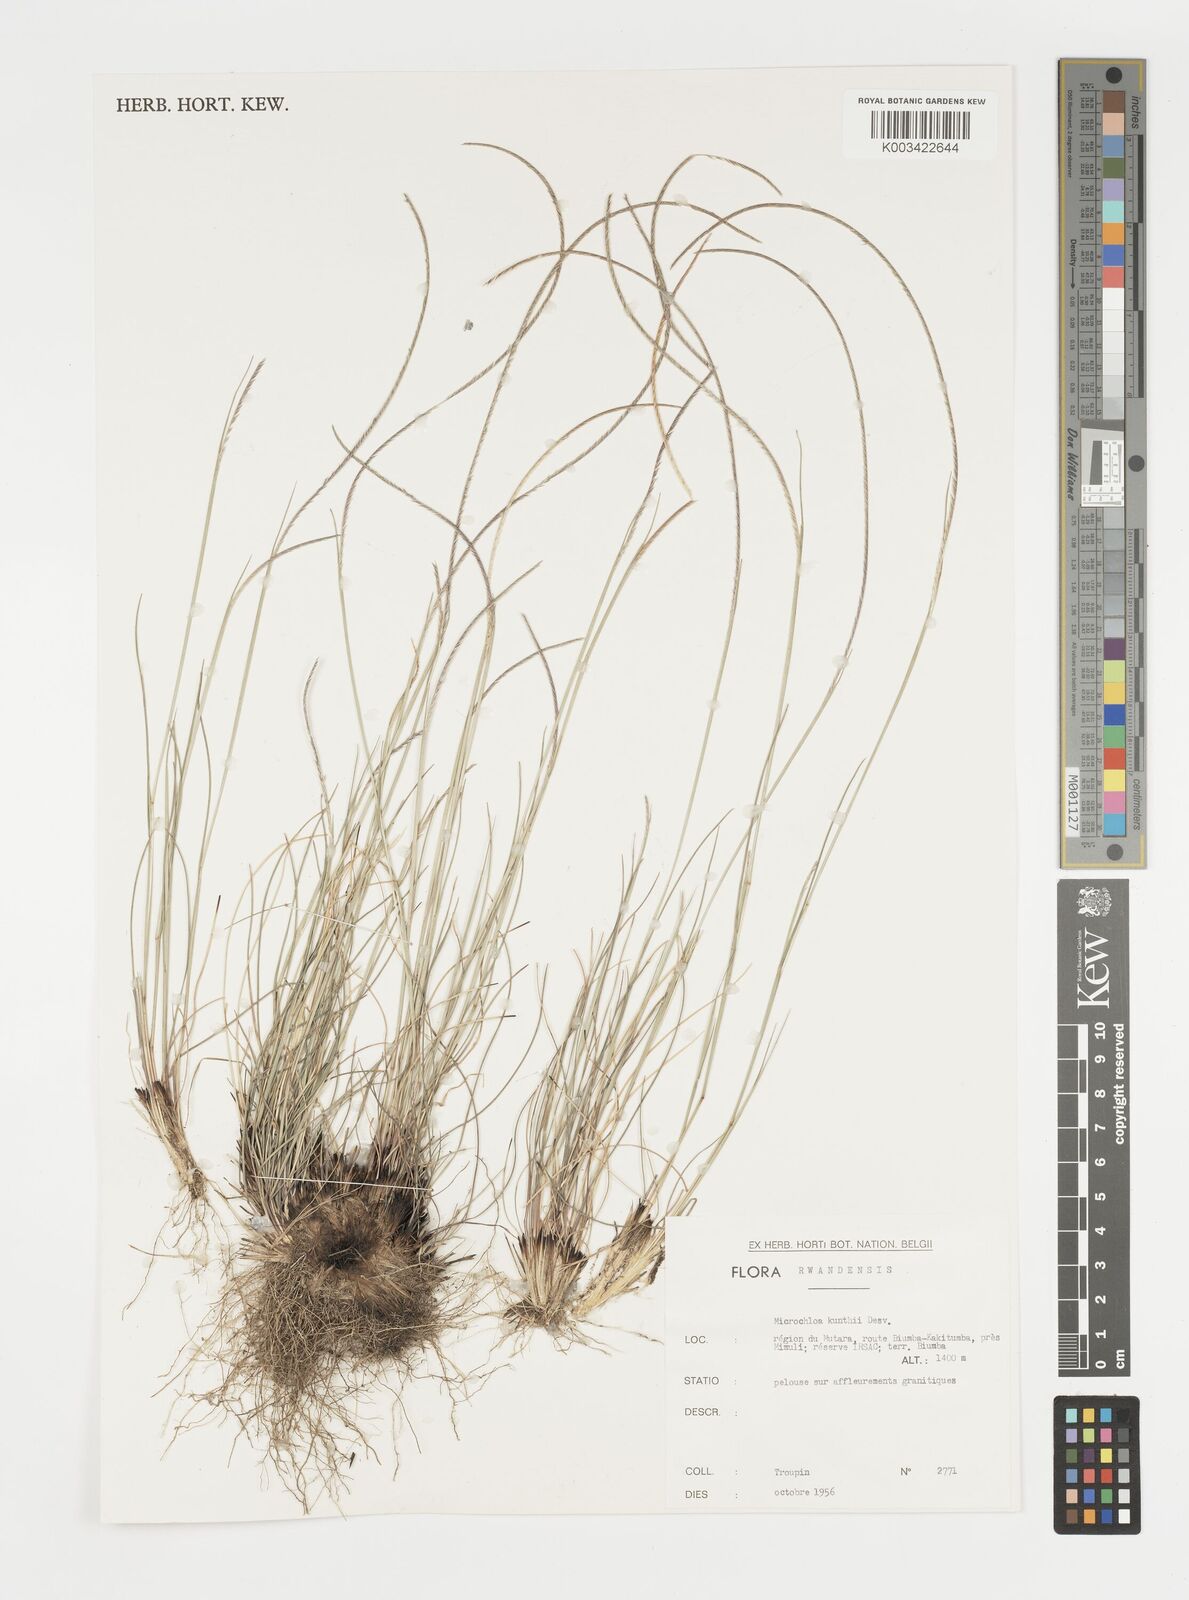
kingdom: Plantae
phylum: Tracheophyta
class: Liliopsida
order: Poales
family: Poaceae
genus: Microchloa
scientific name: Microchloa kunthii
